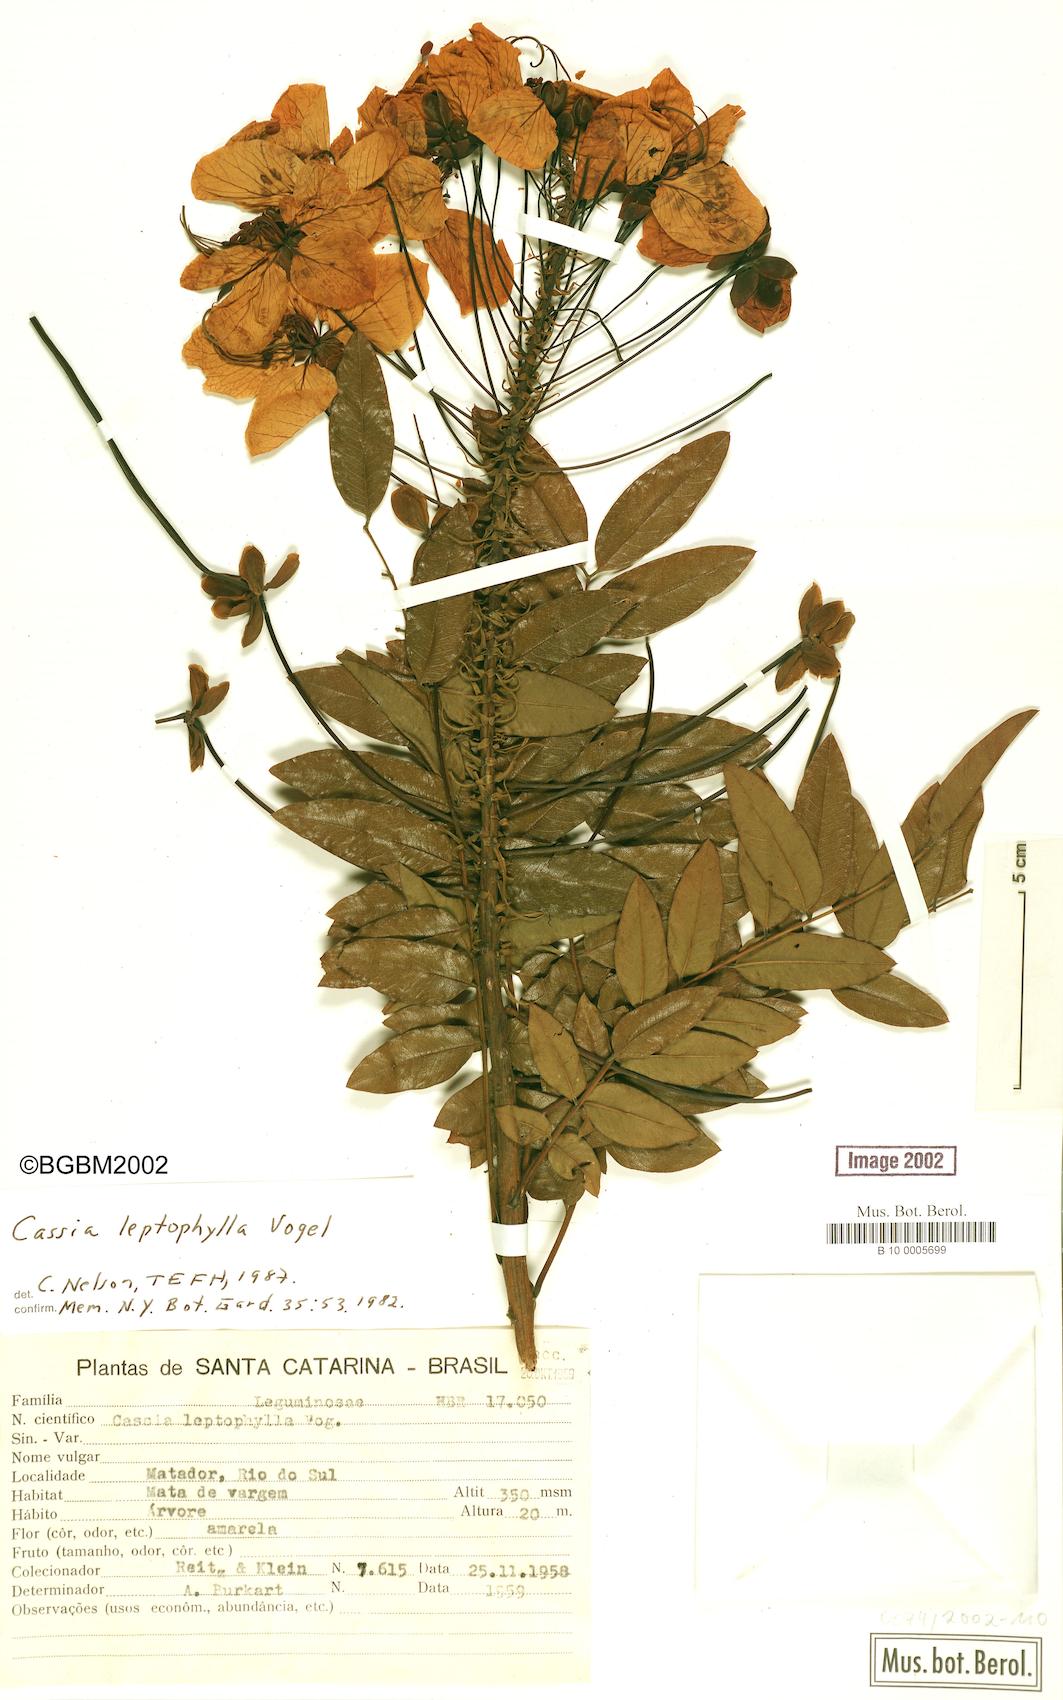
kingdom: Plantae
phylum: Tracheophyta
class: Magnoliopsida
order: Fabales
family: Fabaceae
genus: Cassia
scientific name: Cassia leptophylla
